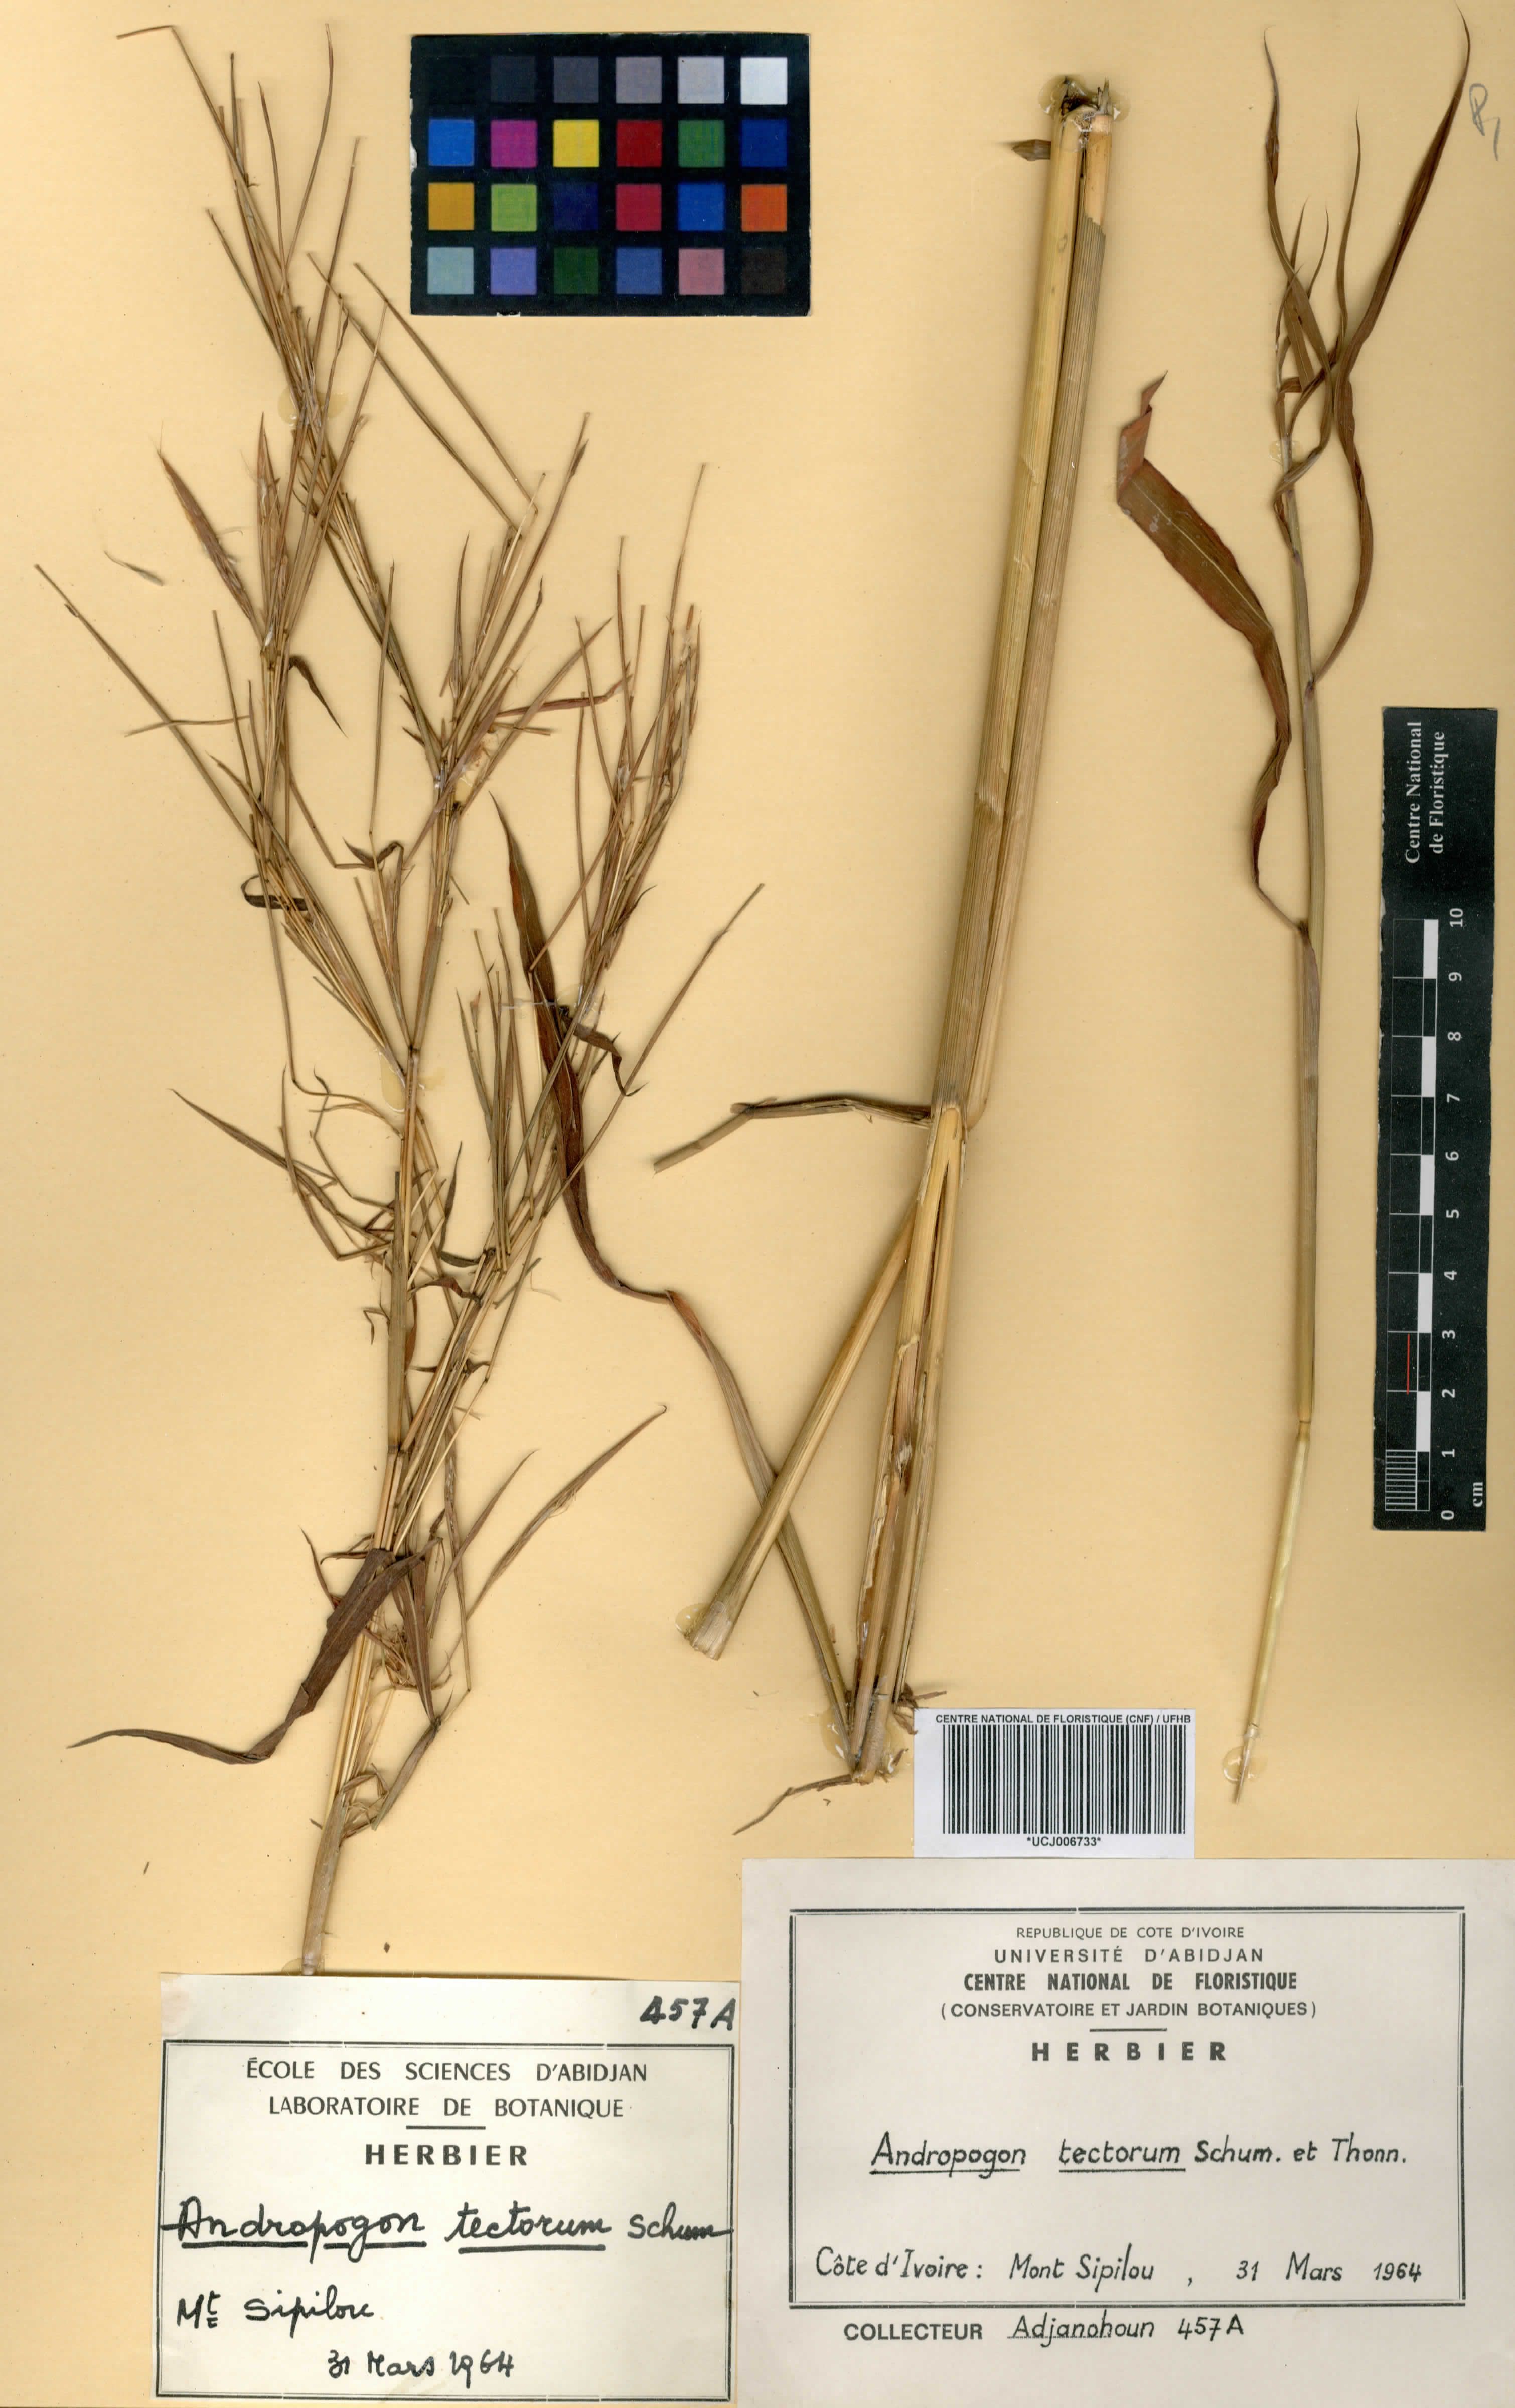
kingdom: Plantae
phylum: Tracheophyta
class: Liliopsida
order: Poales
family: Poaceae
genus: Andropogon
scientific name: Andropogon tectorum
